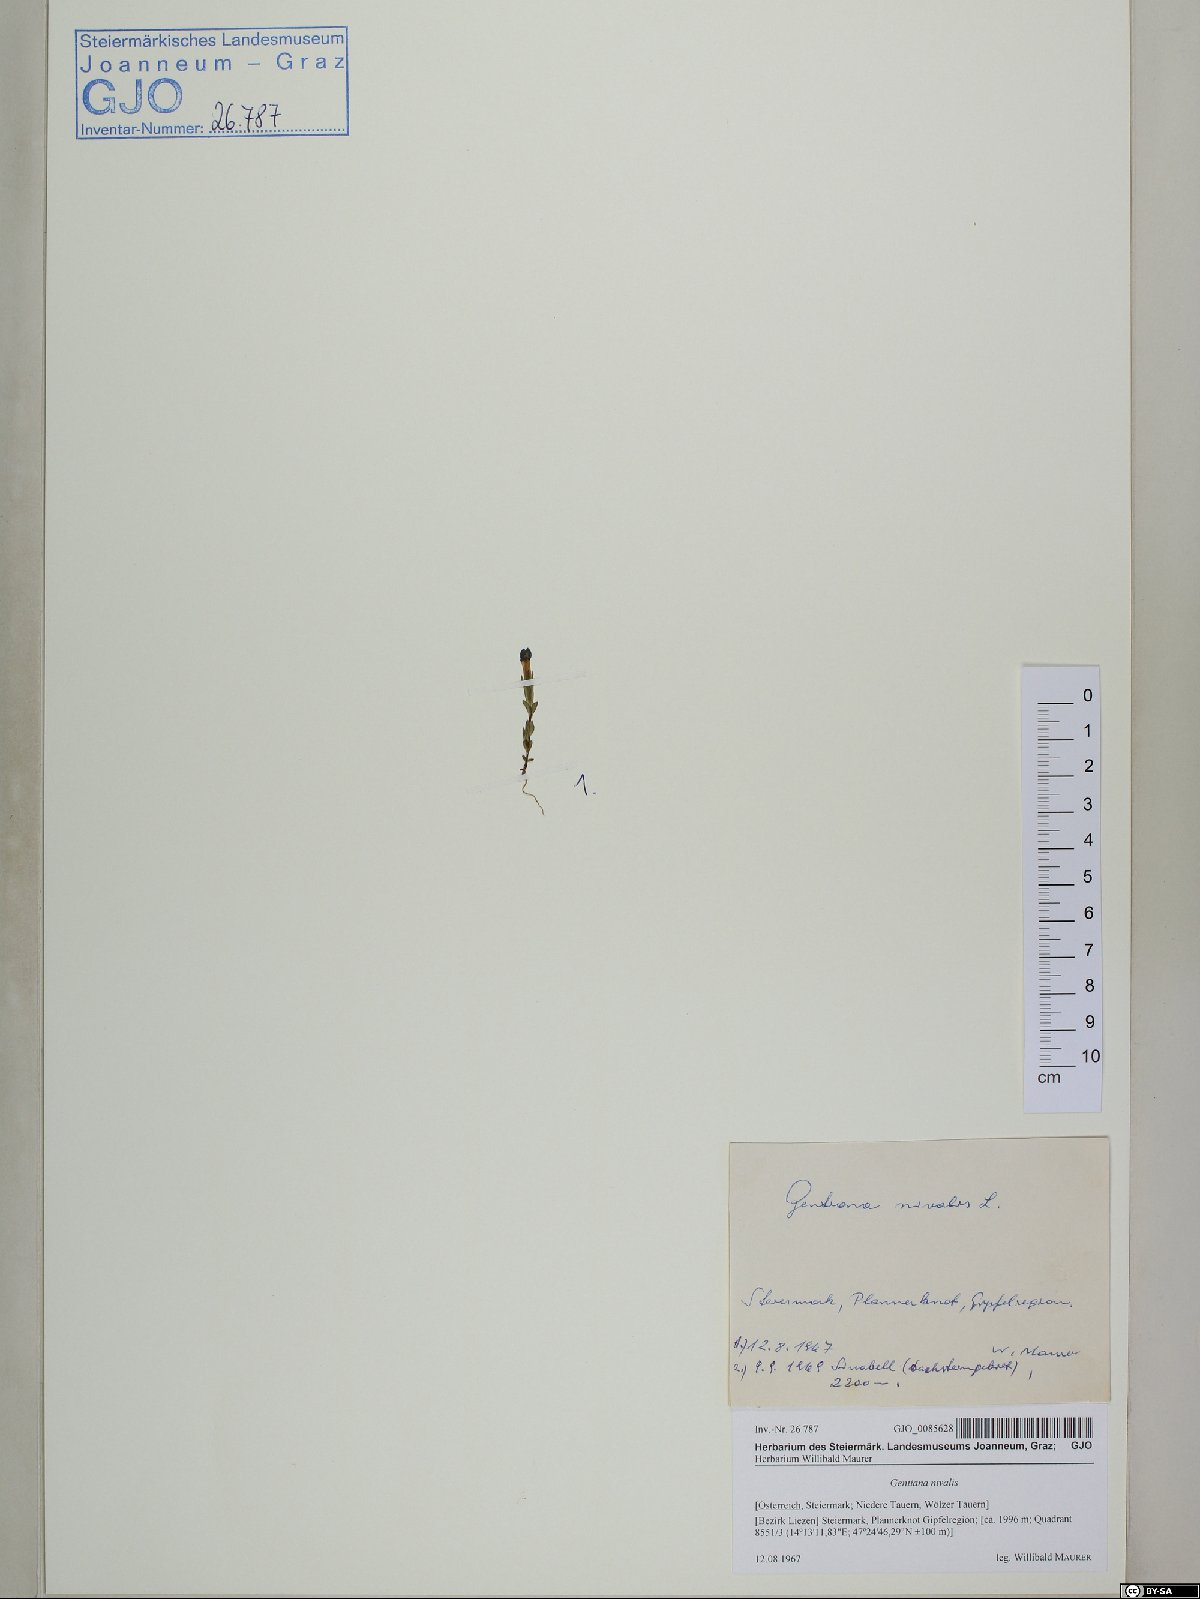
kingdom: Plantae
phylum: Tracheophyta
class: Magnoliopsida
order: Gentianales
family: Gentianaceae
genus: Gentiana
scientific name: Gentiana nivalis
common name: Alpine gentian
